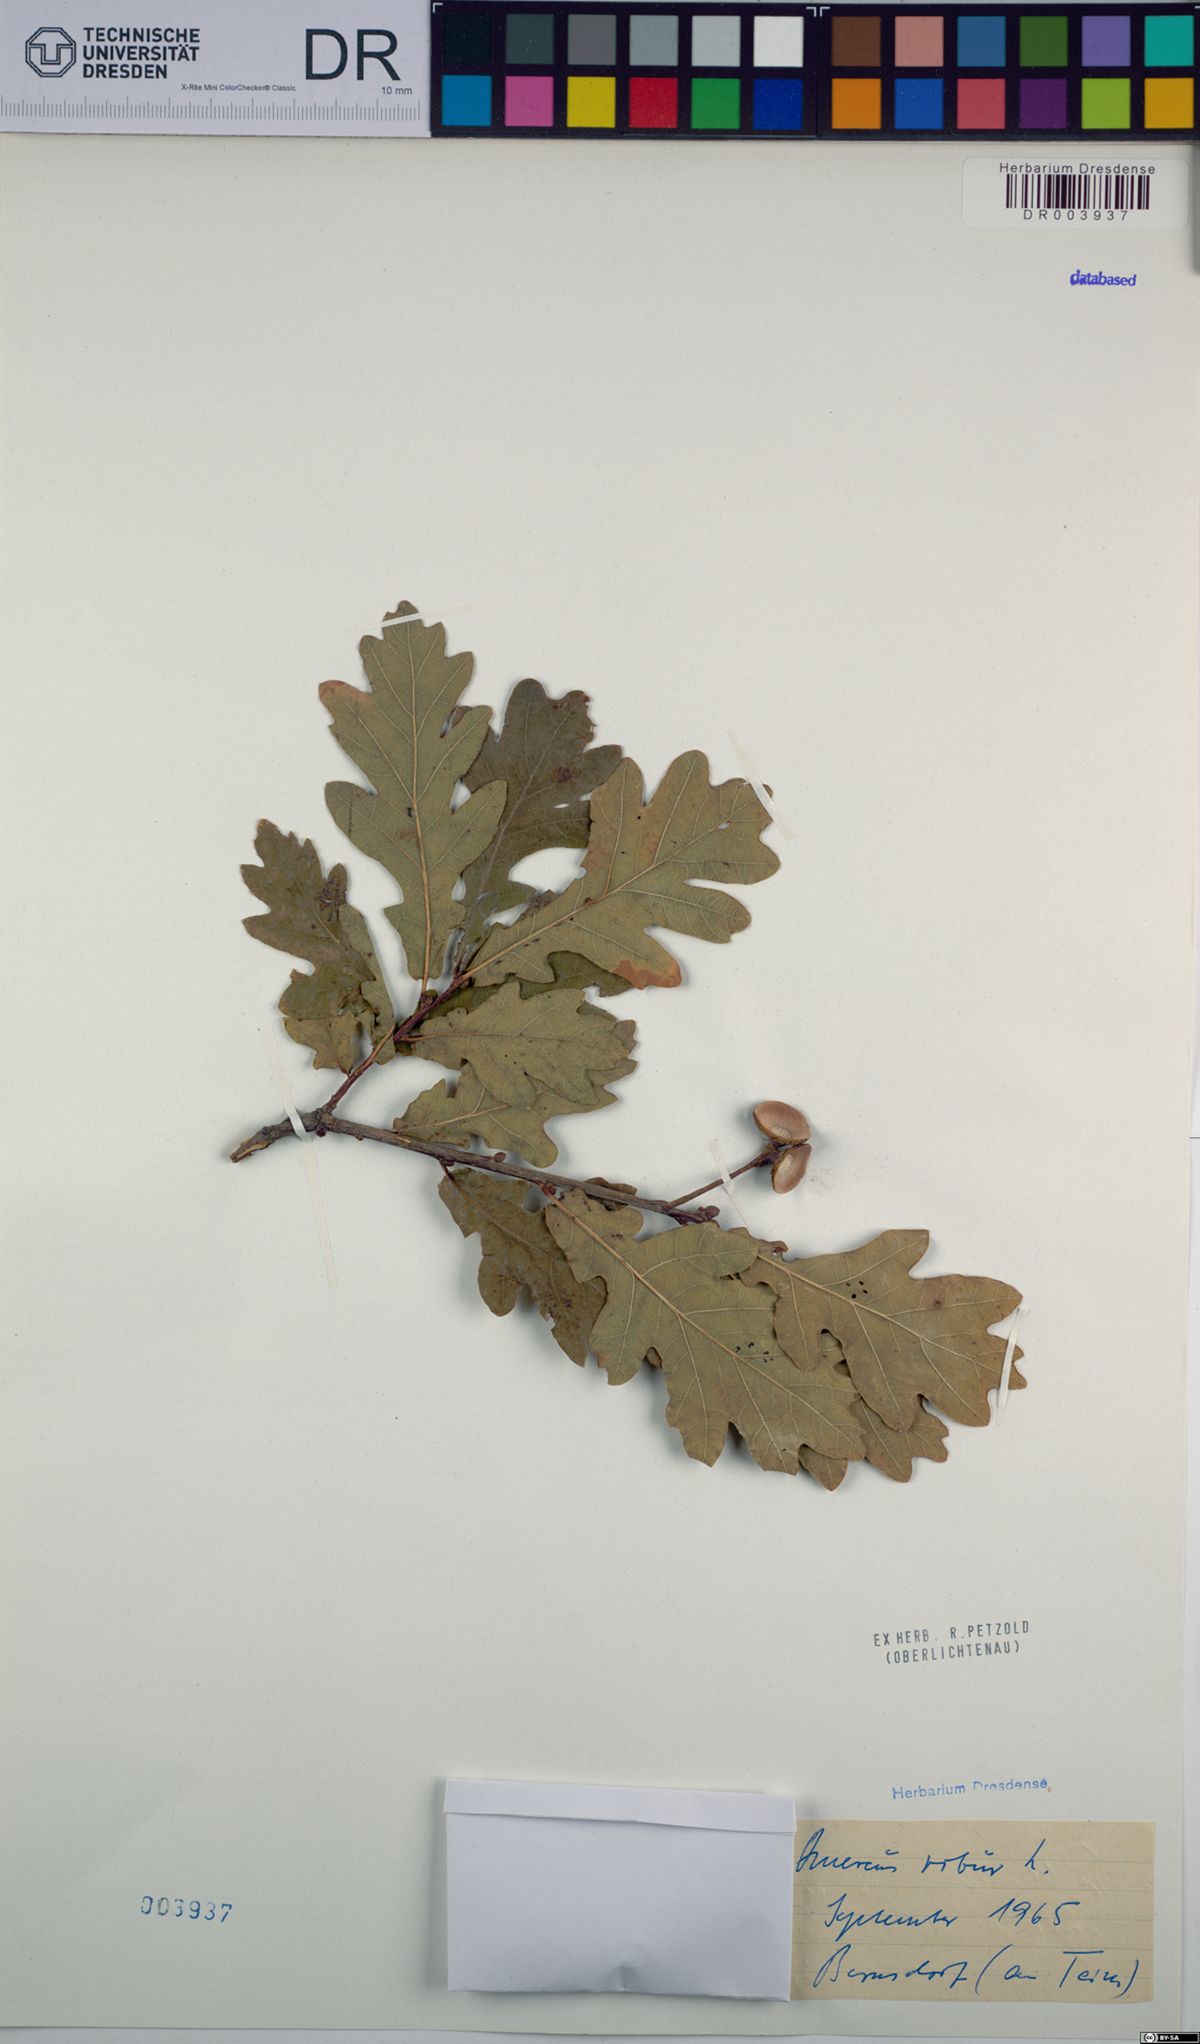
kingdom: Plantae
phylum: Tracheophyta
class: Magnoliopsida
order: Fagales
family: Fagaceae
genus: Quercus
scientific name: Quercus robur
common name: Pedunculate oak
